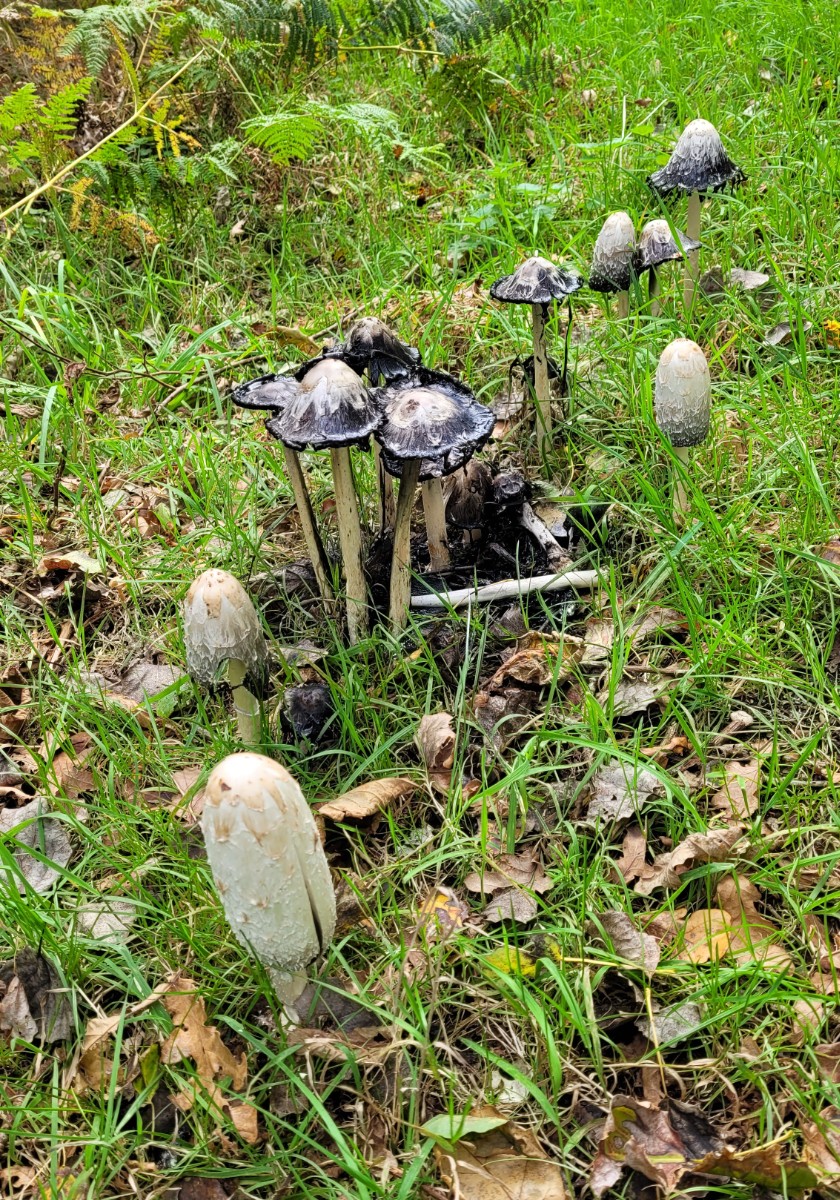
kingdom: Fungi
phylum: Basidiomycota
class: Agaricomycetes
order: Agaricales
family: Agaricaceae
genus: Coprinus
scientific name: Coprinus comatus
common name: stor parykhat
